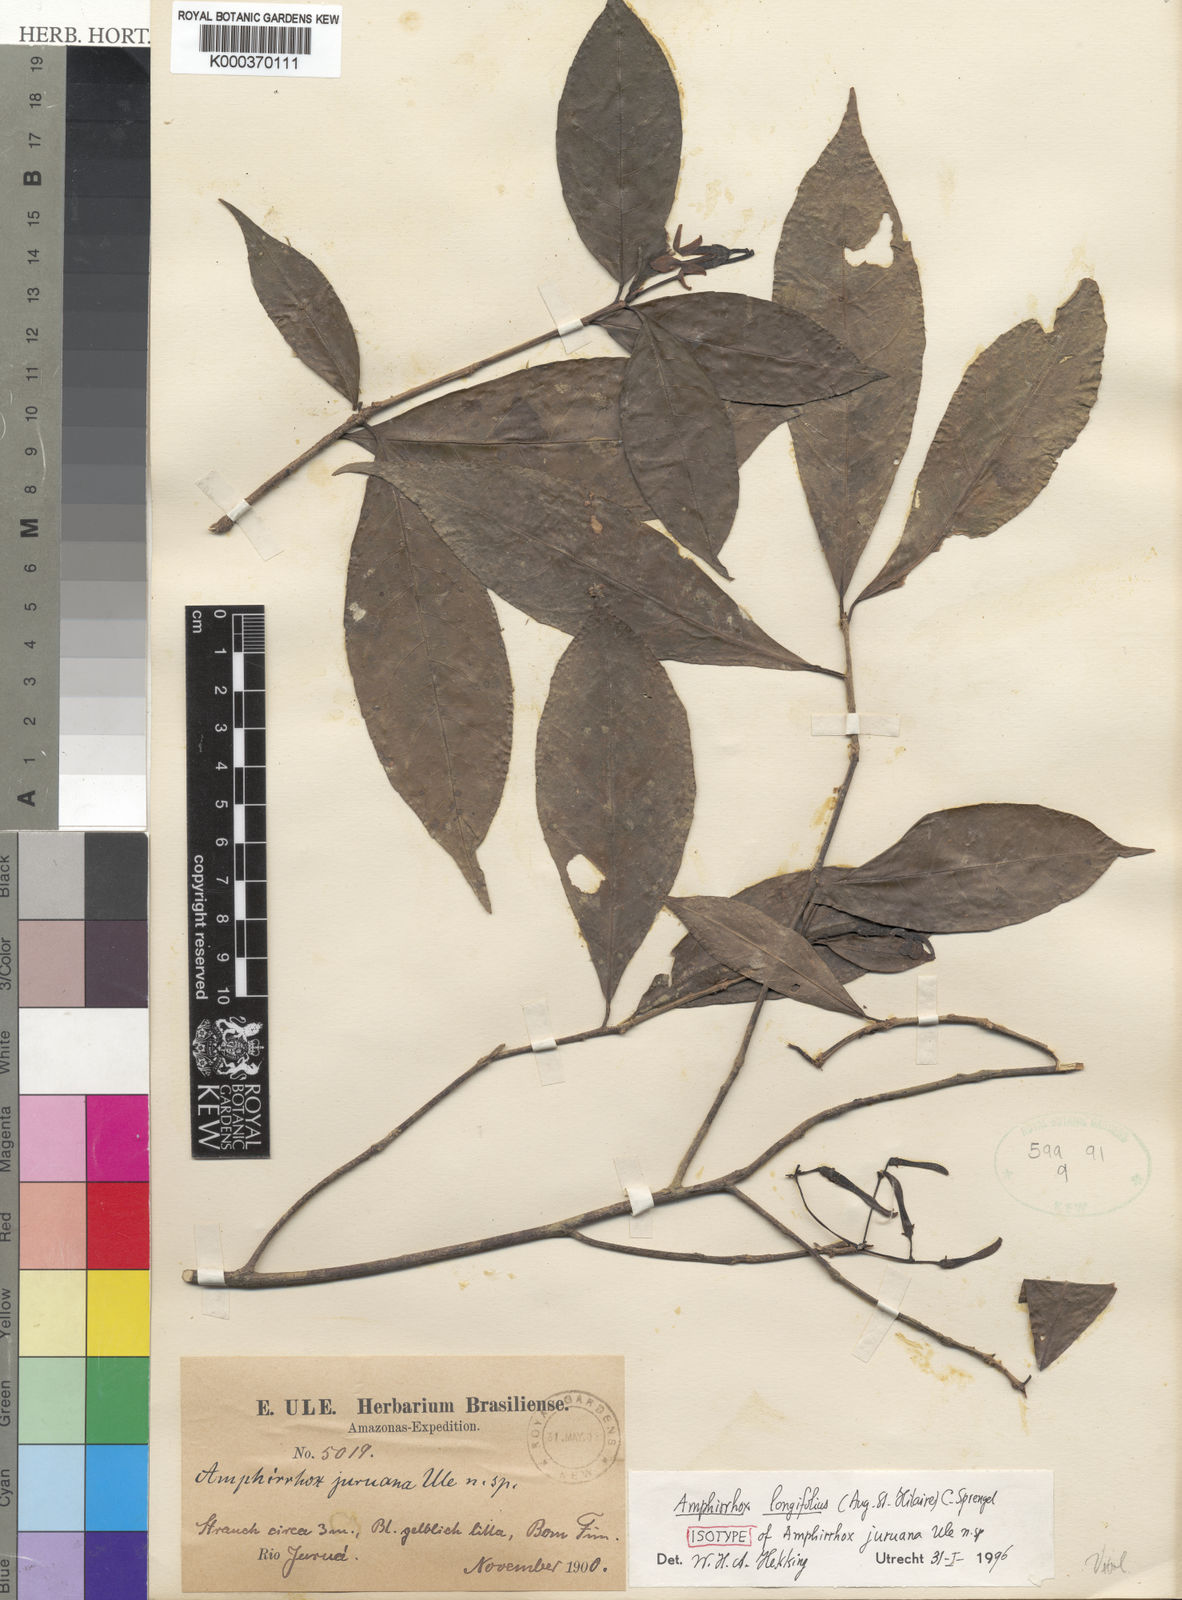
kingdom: Plantae
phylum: Tracheophyta
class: Magnoliopsida
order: Malpighiales
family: Violaceae
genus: Amphirrhox
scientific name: Amphirrhox longifolia
